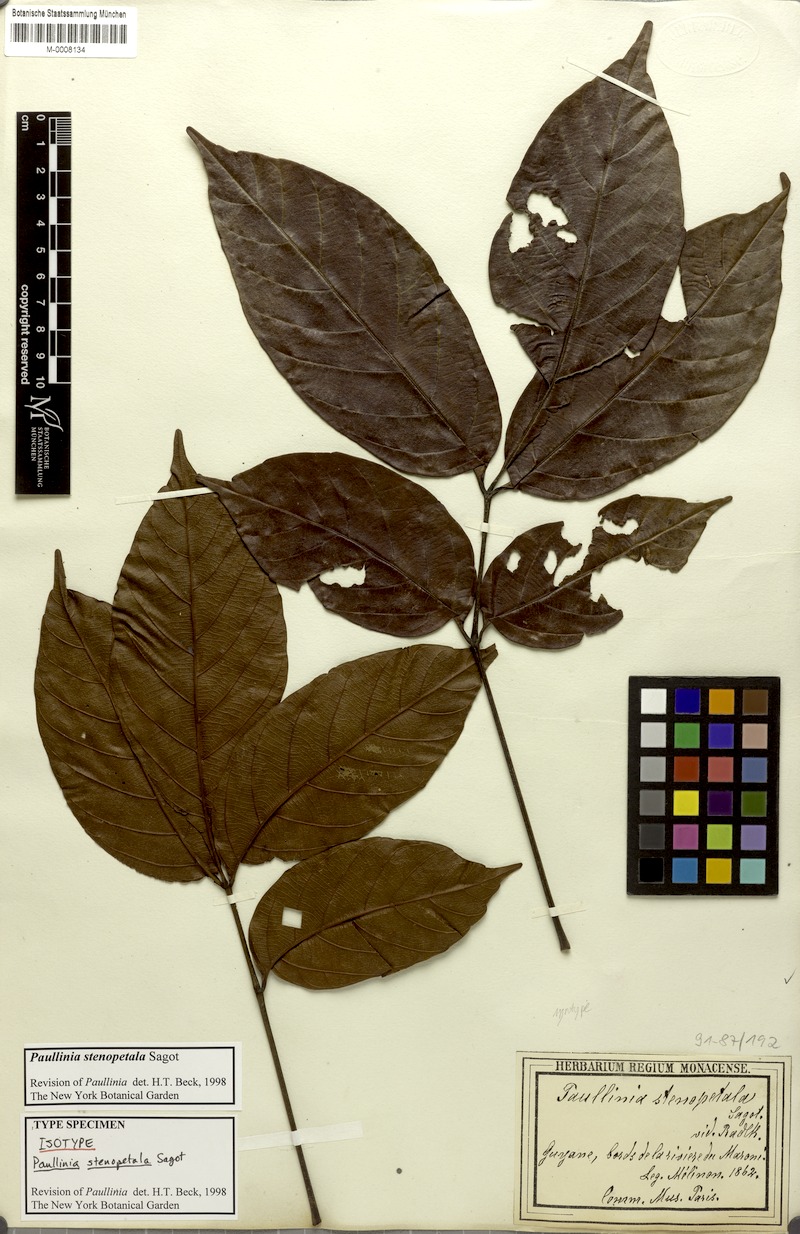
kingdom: Plantae
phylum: Tracheophyta
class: Magnoliopsida
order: Sapindales
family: Sapindaceae
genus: Paullinia
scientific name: Paullinia stenopetala
